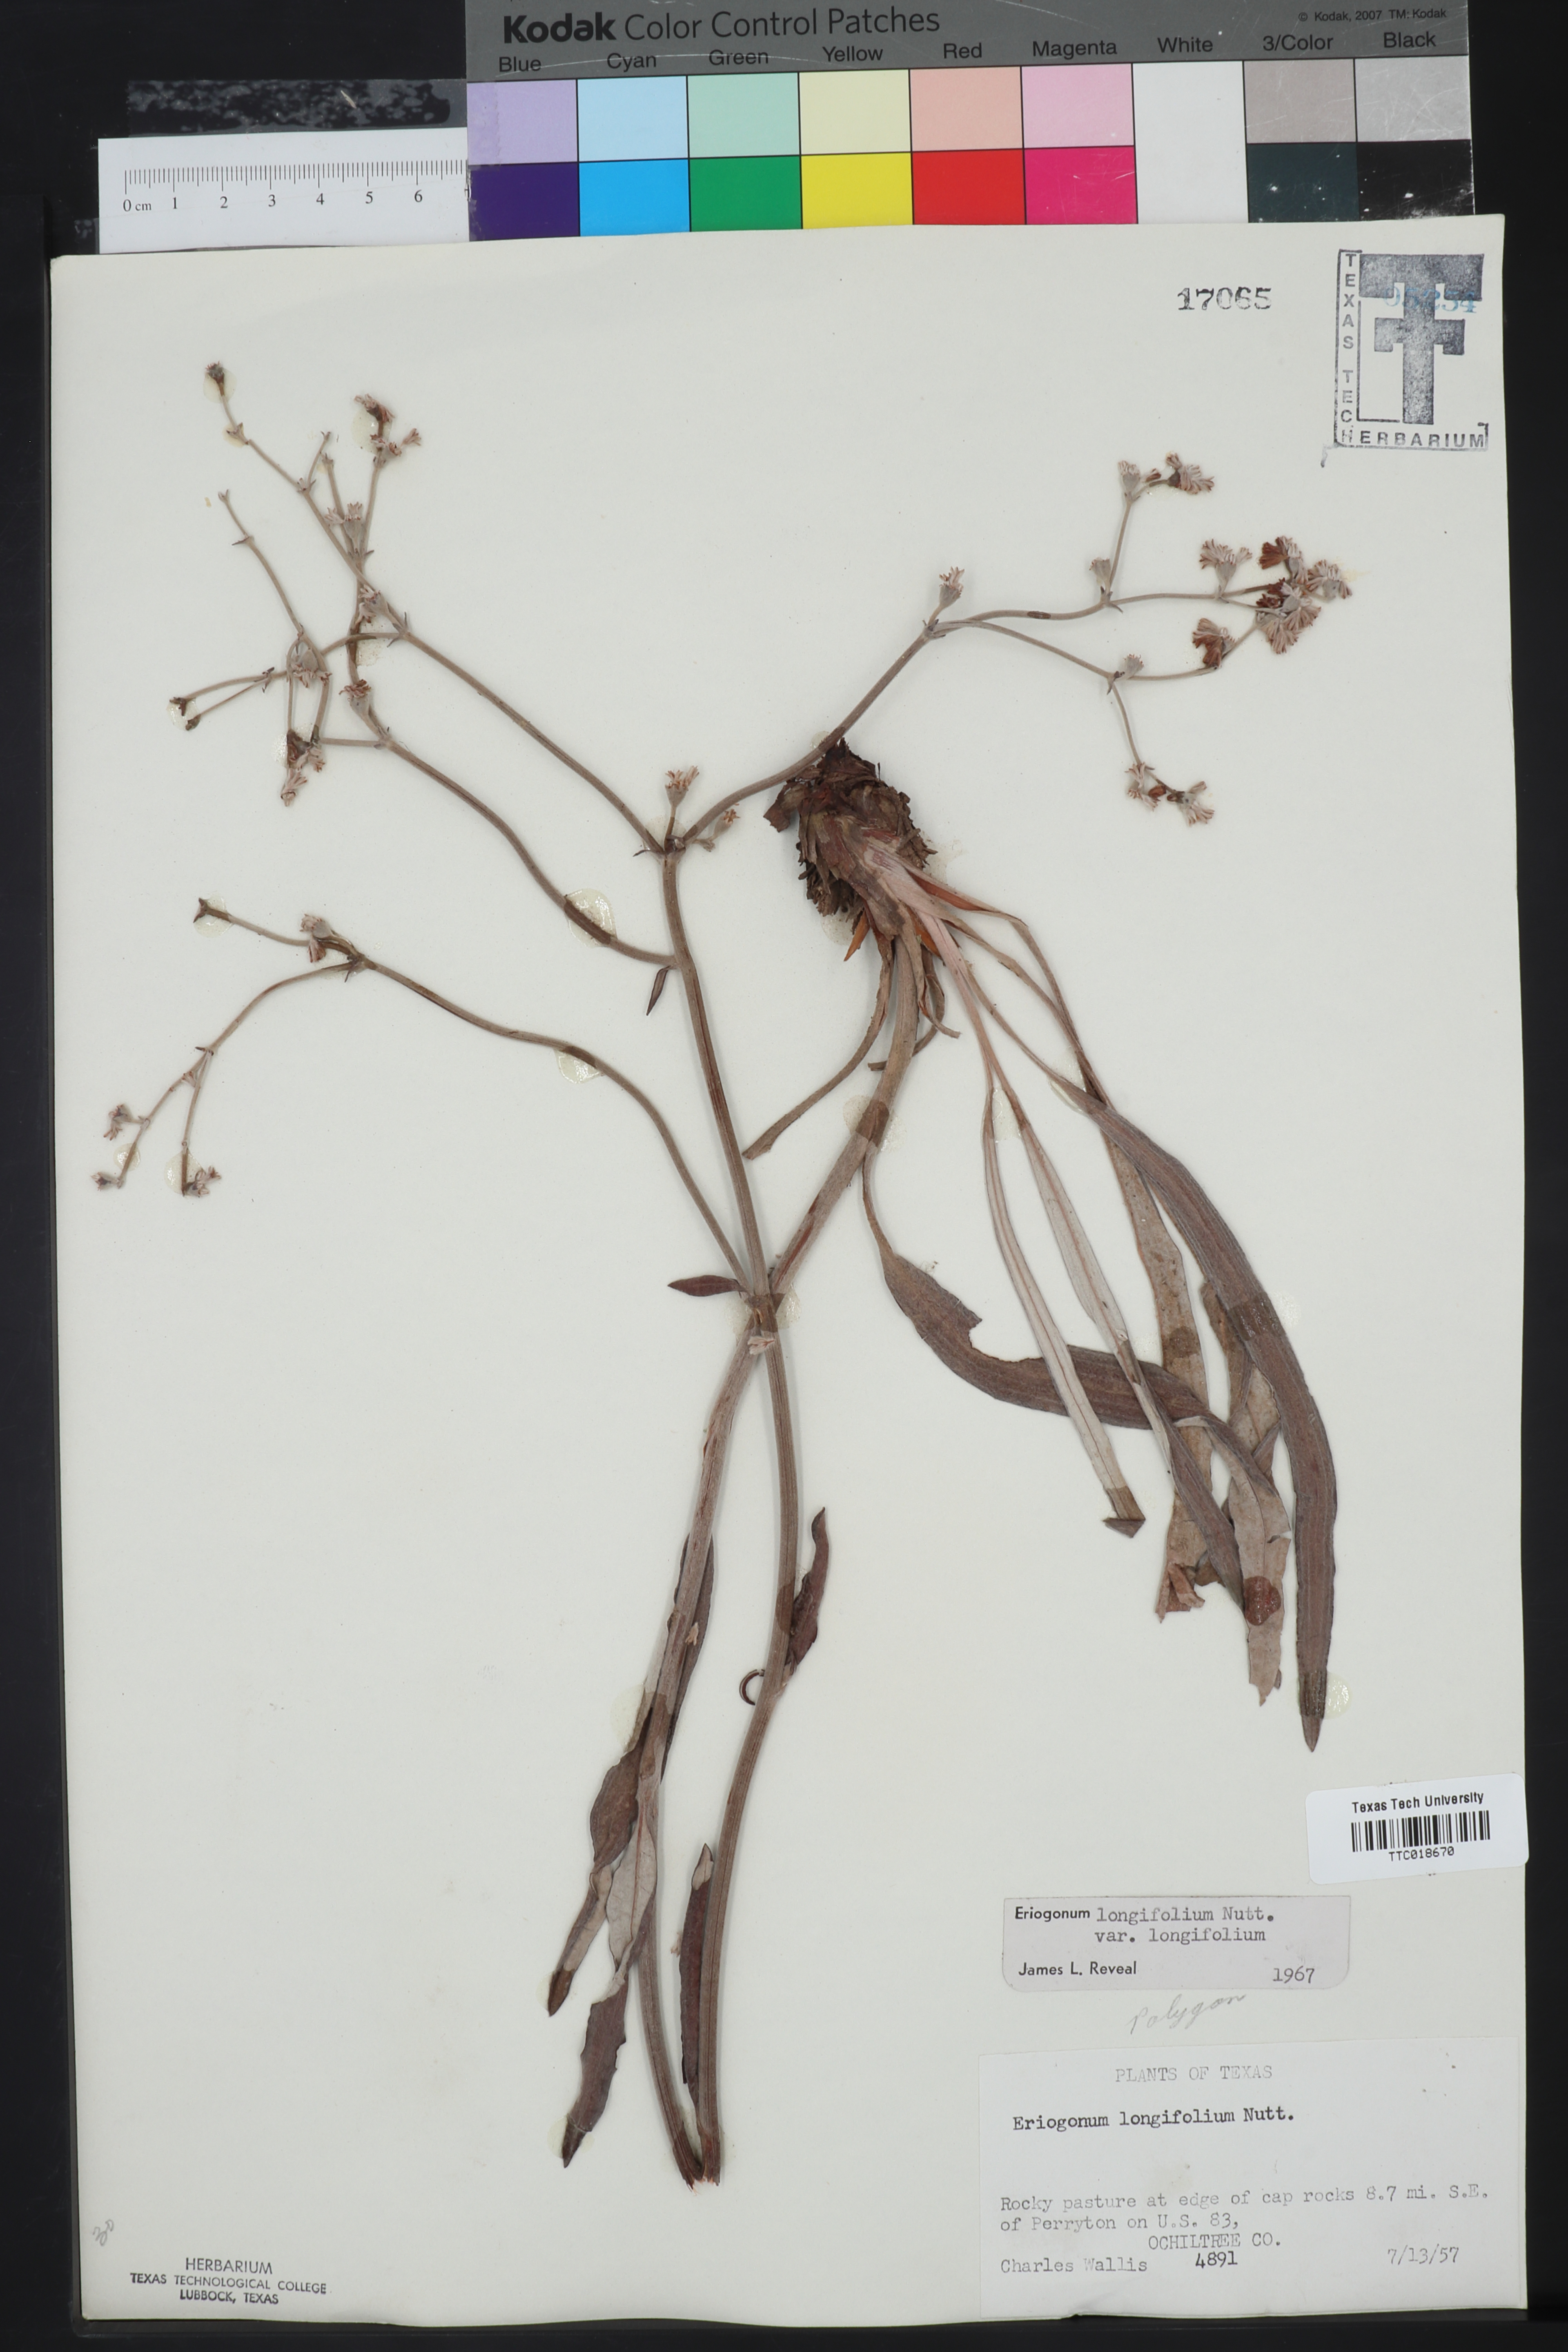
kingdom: Plantae
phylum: Tracheophyta
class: Magnoliopsida
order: Caryophyllales
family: Polygonaceae
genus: Eriogonum
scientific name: Eriogonum longifolium
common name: Longleaf wild buckwheat
